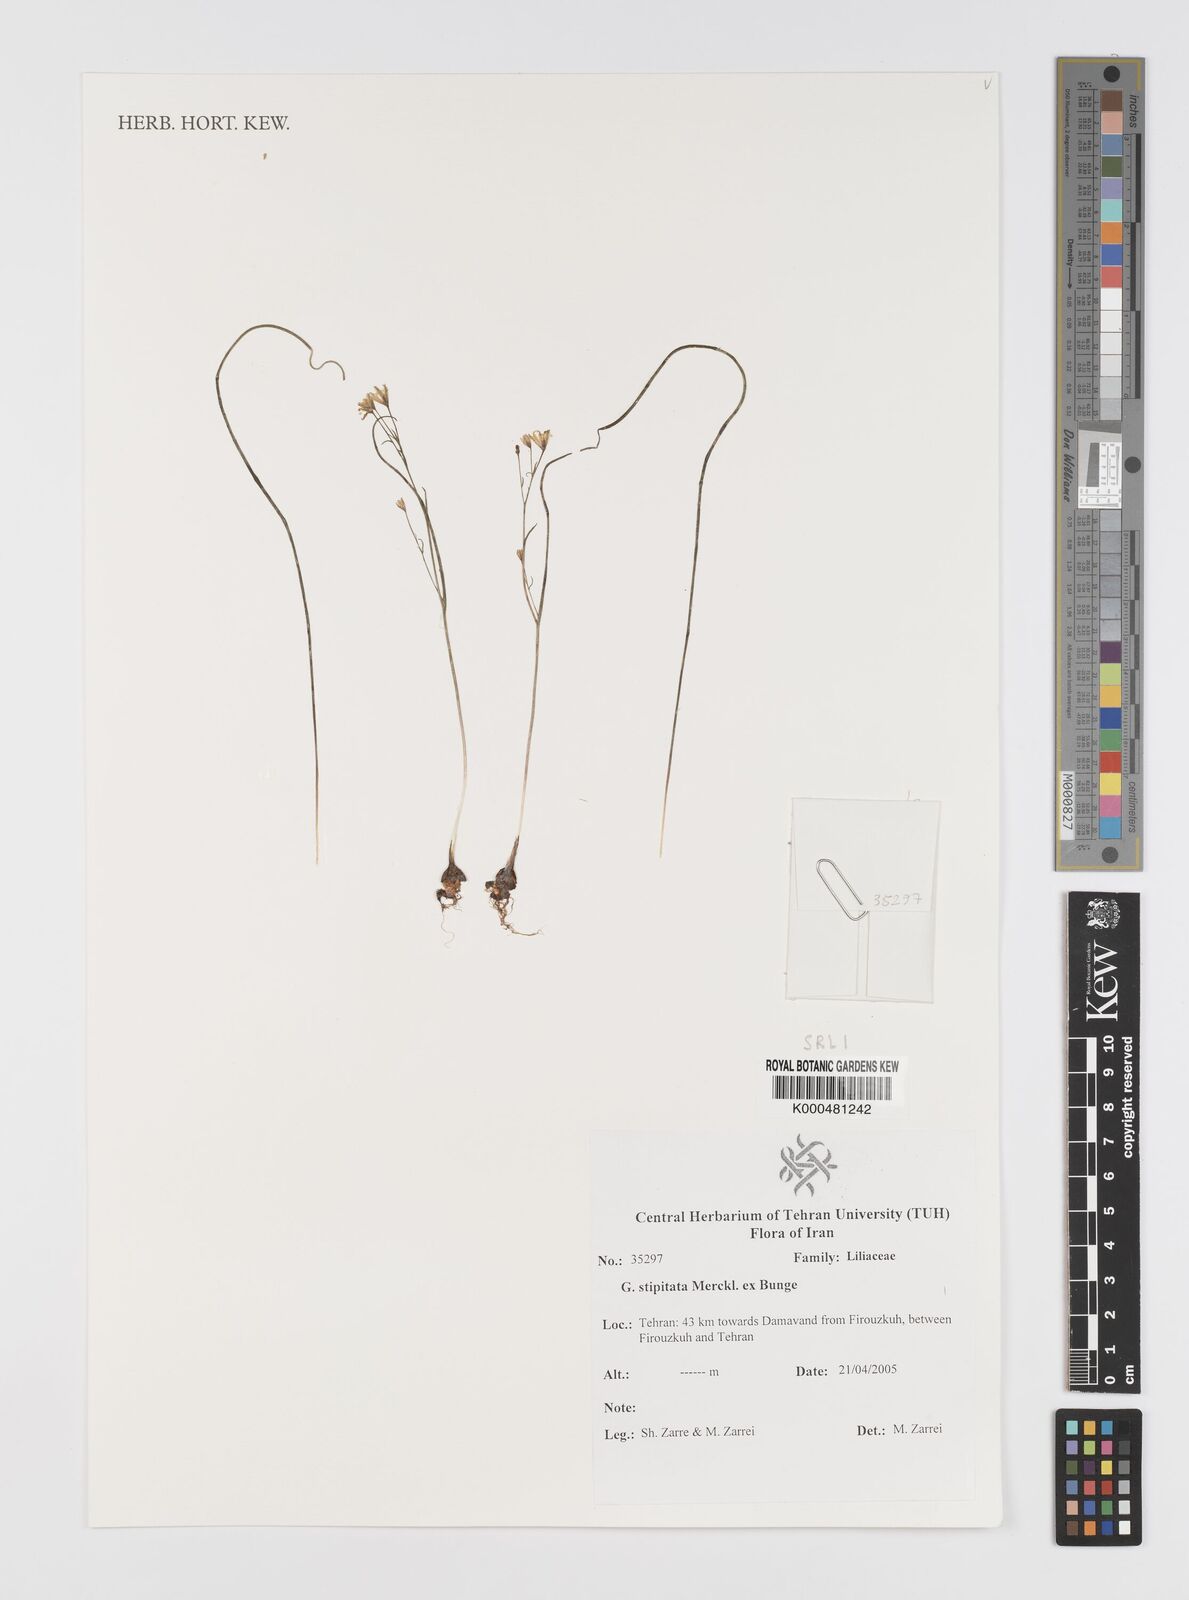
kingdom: Plantae
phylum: Tracheophyta
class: Liliopsida
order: Liliales
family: Liliaceae
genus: Gagea
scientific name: Gagea kunawurensis
